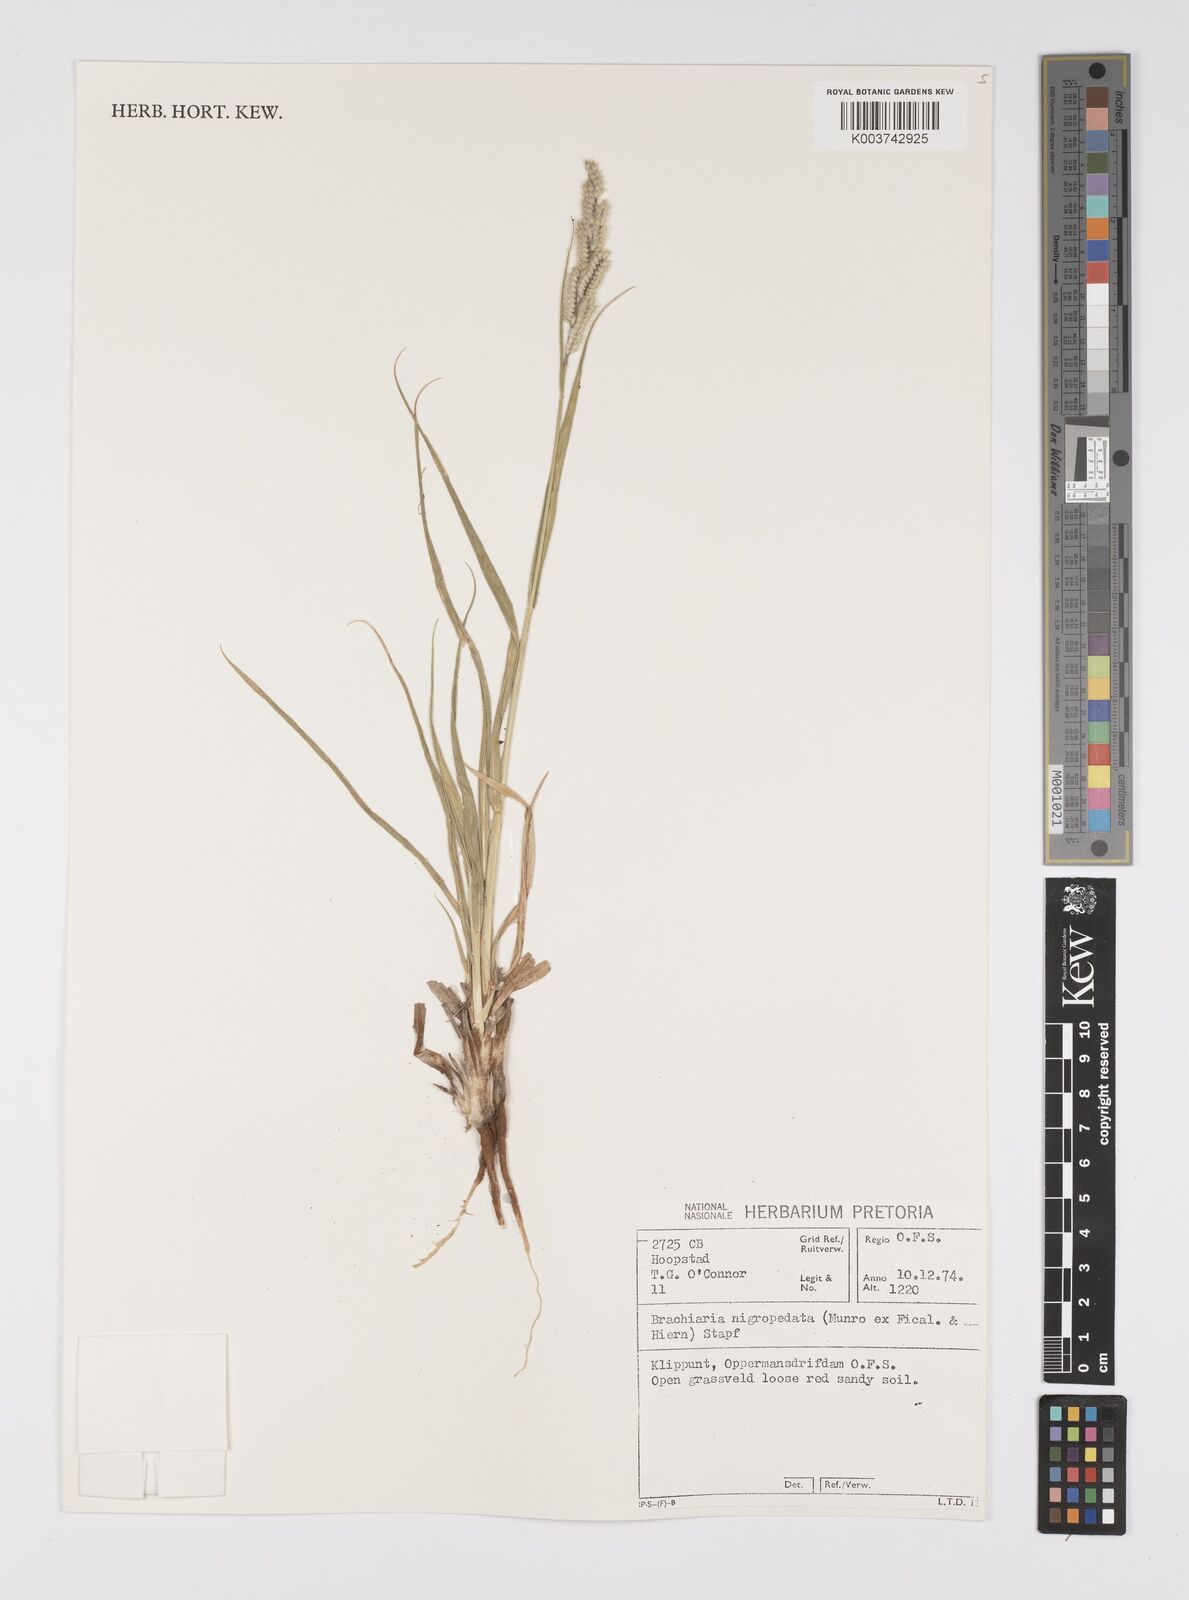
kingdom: Plantae
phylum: Tracheophyta
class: Liliopsida
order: Poales
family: Poaceae
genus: Urochloa
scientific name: Urochloa nigropedata
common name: Spotted signal grass
